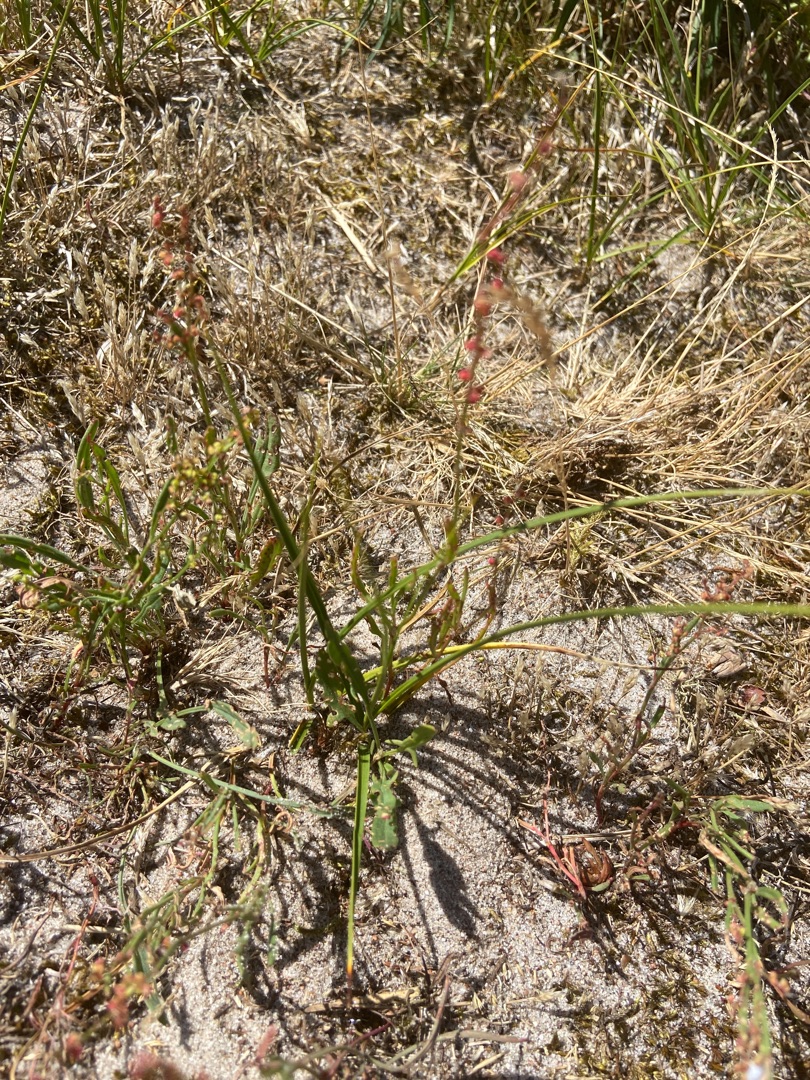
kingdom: Plantae
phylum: Tracheophyta
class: Magnoliopsida
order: Caryophyllales
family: Polygonaceae
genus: Rumex
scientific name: Rumex acetosella
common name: Rødknæ
